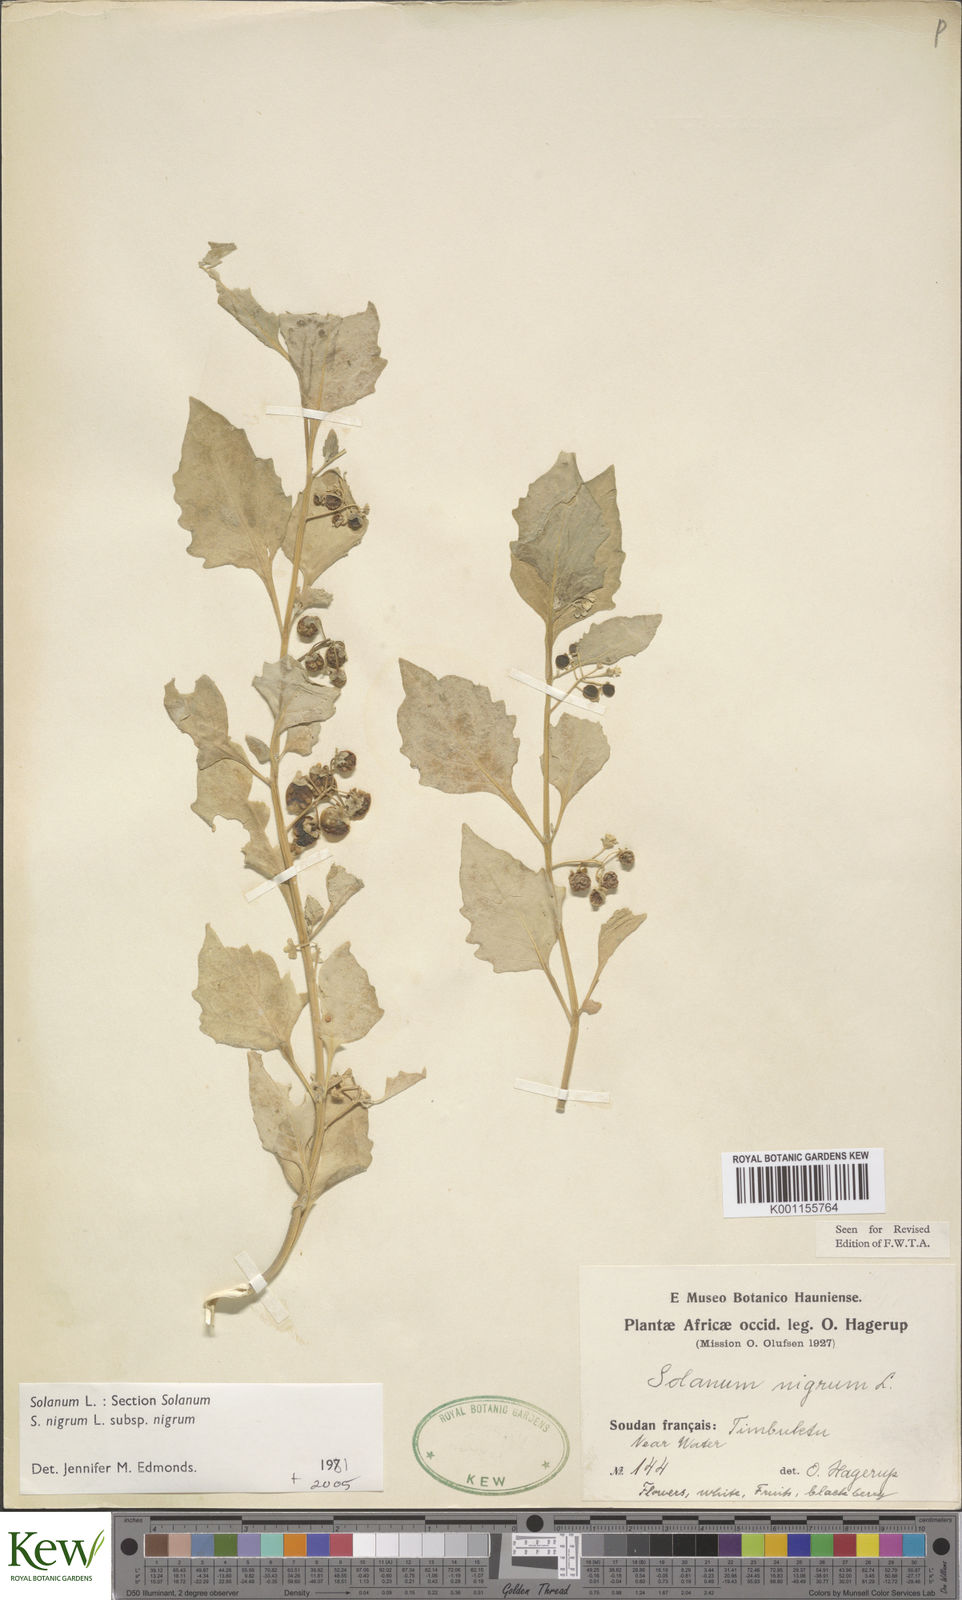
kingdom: Plantae
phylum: Tracheophyta
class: Magnoliopsida
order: Solanales
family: Solanaceae
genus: Solanum
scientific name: Solanum nigrum
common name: Black nightshade
